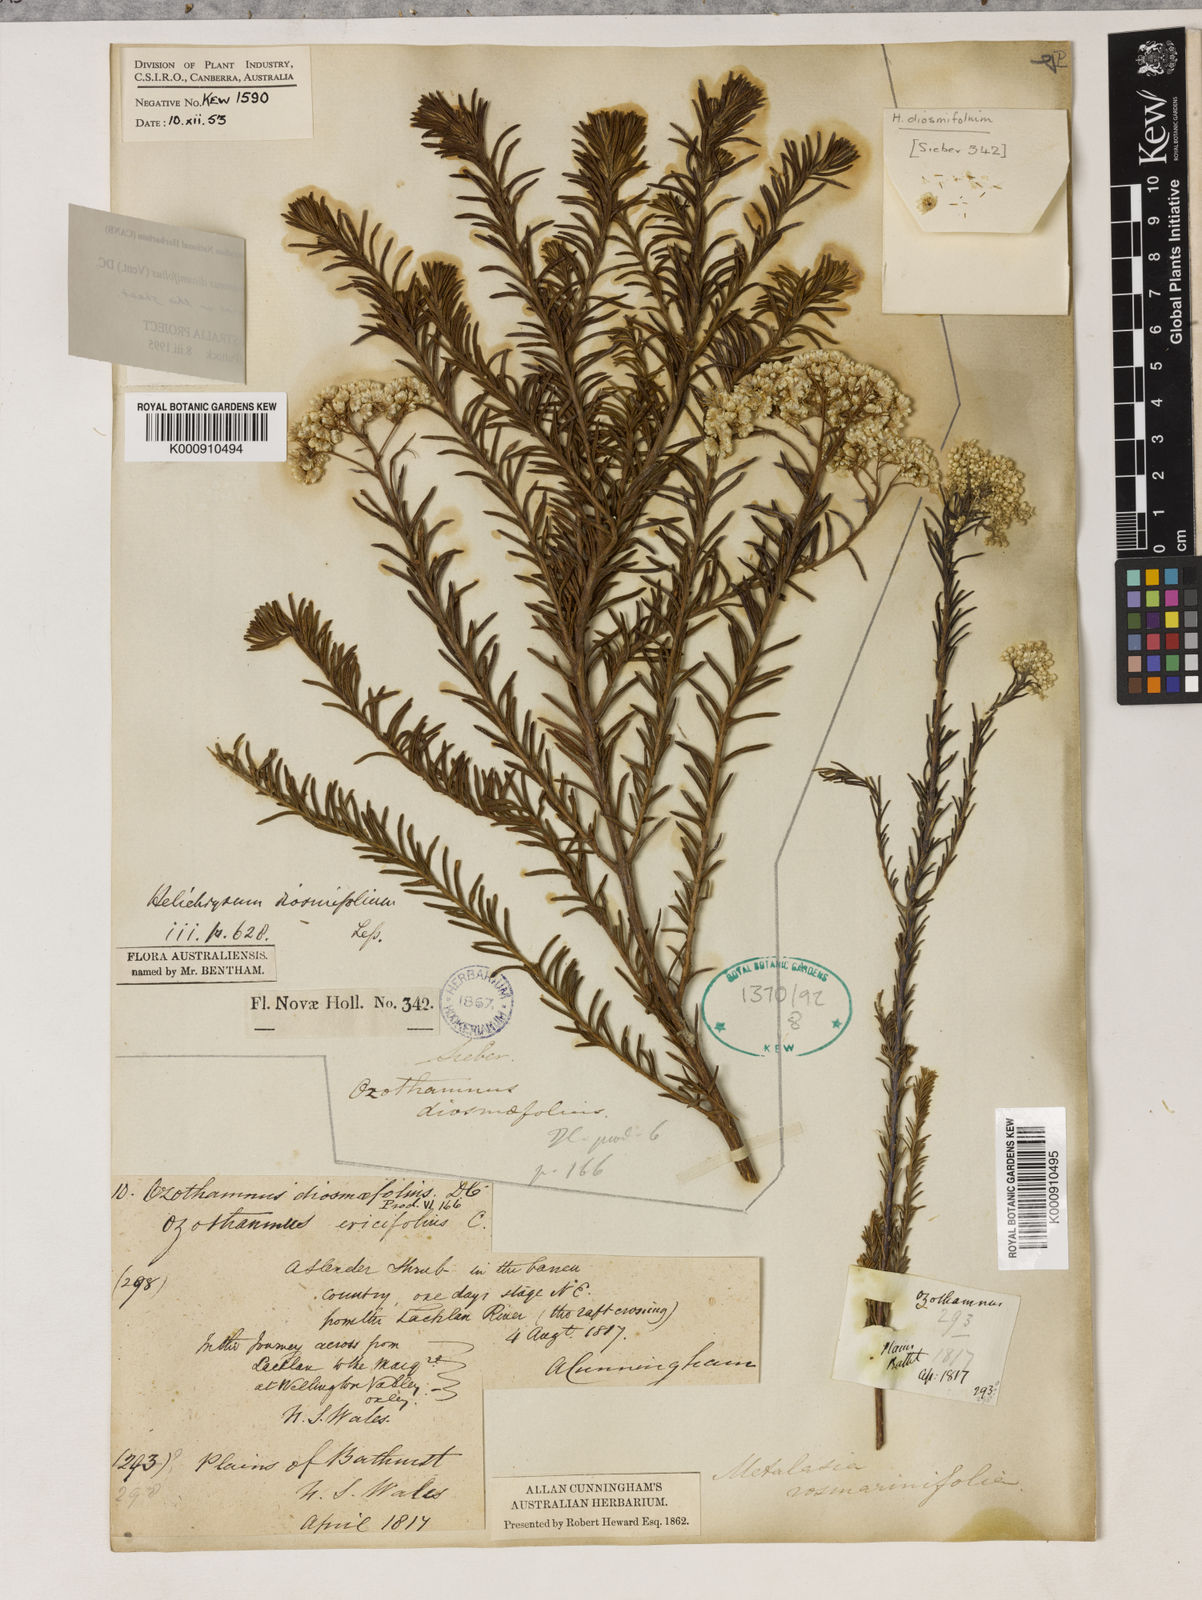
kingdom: Plantae
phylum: Tracheophyta
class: Magnoliopsida
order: Asterales
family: Asteraceae
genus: Ozothamnus
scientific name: Ozothamnus diosmifolius
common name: White-dogwood
